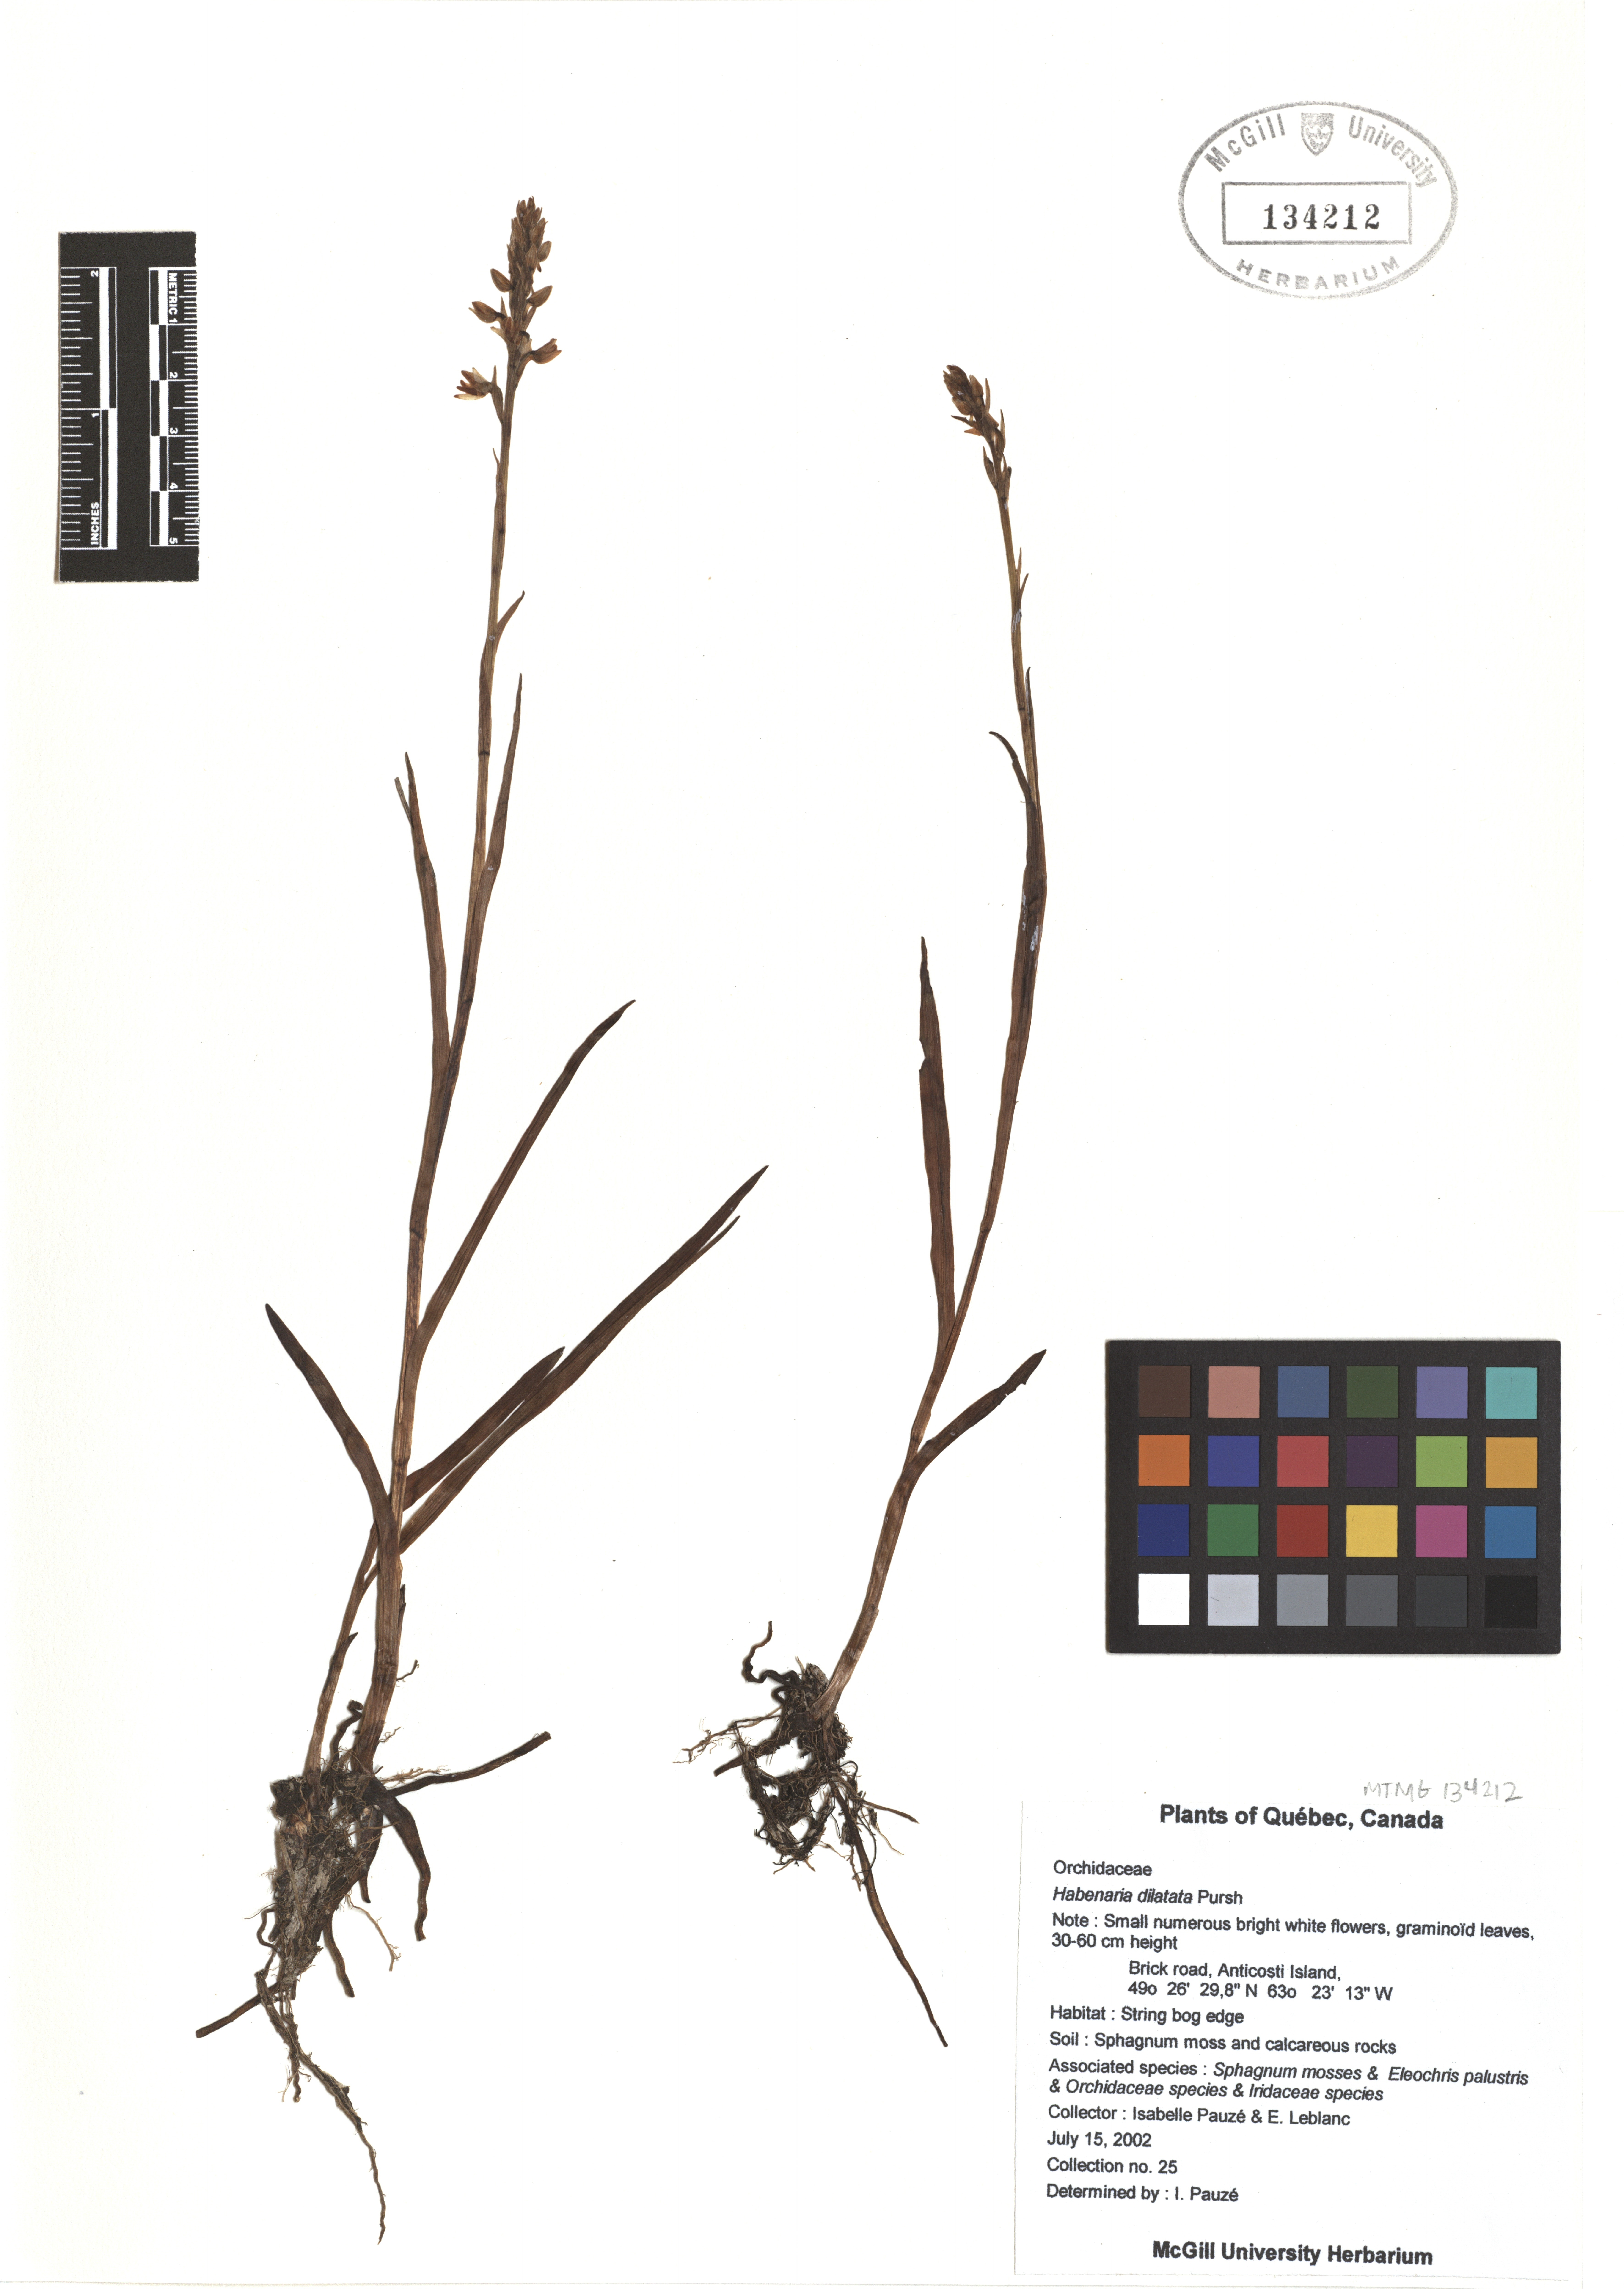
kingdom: Plantae
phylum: Tracheophyta
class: Liliopsida
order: Asparagales
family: Orchidaceae
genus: Platanthera
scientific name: Platanthera dilatata
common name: Bog candles
